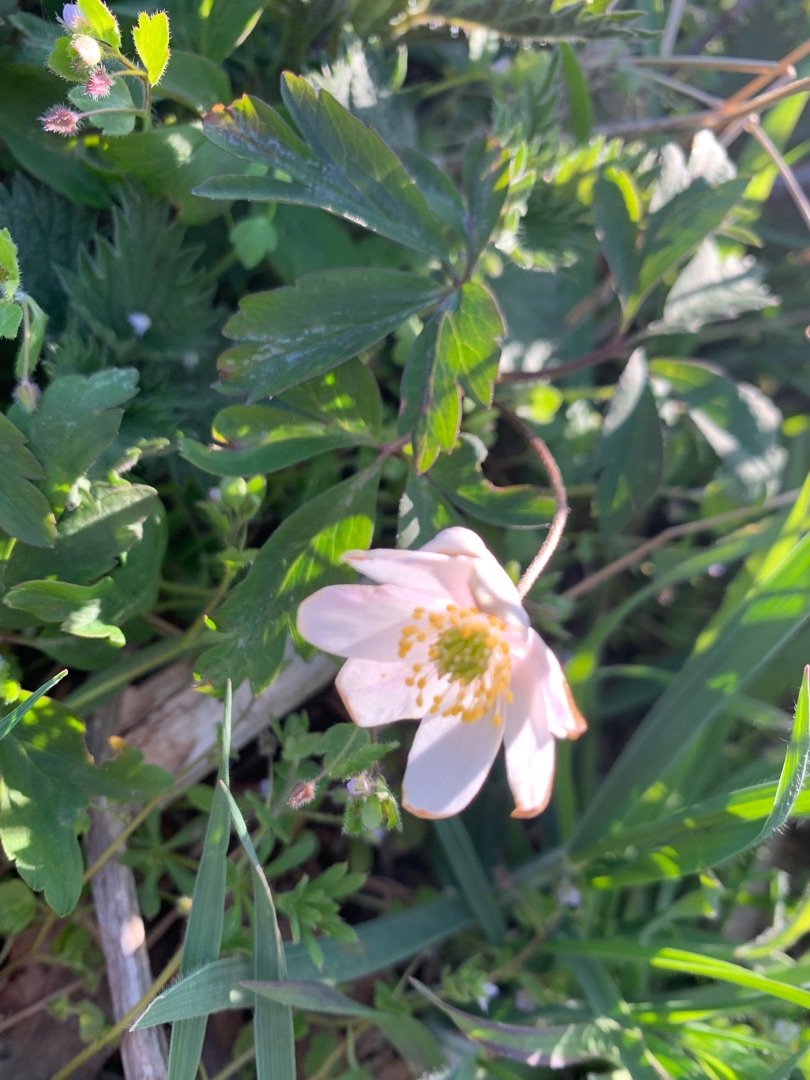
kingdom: Plantae
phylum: Tracheophyta
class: Magnoliopsida
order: Ranunculales
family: Ranunculaceae
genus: Anemone
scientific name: Anemone nemorosa
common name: Hvid anemone
